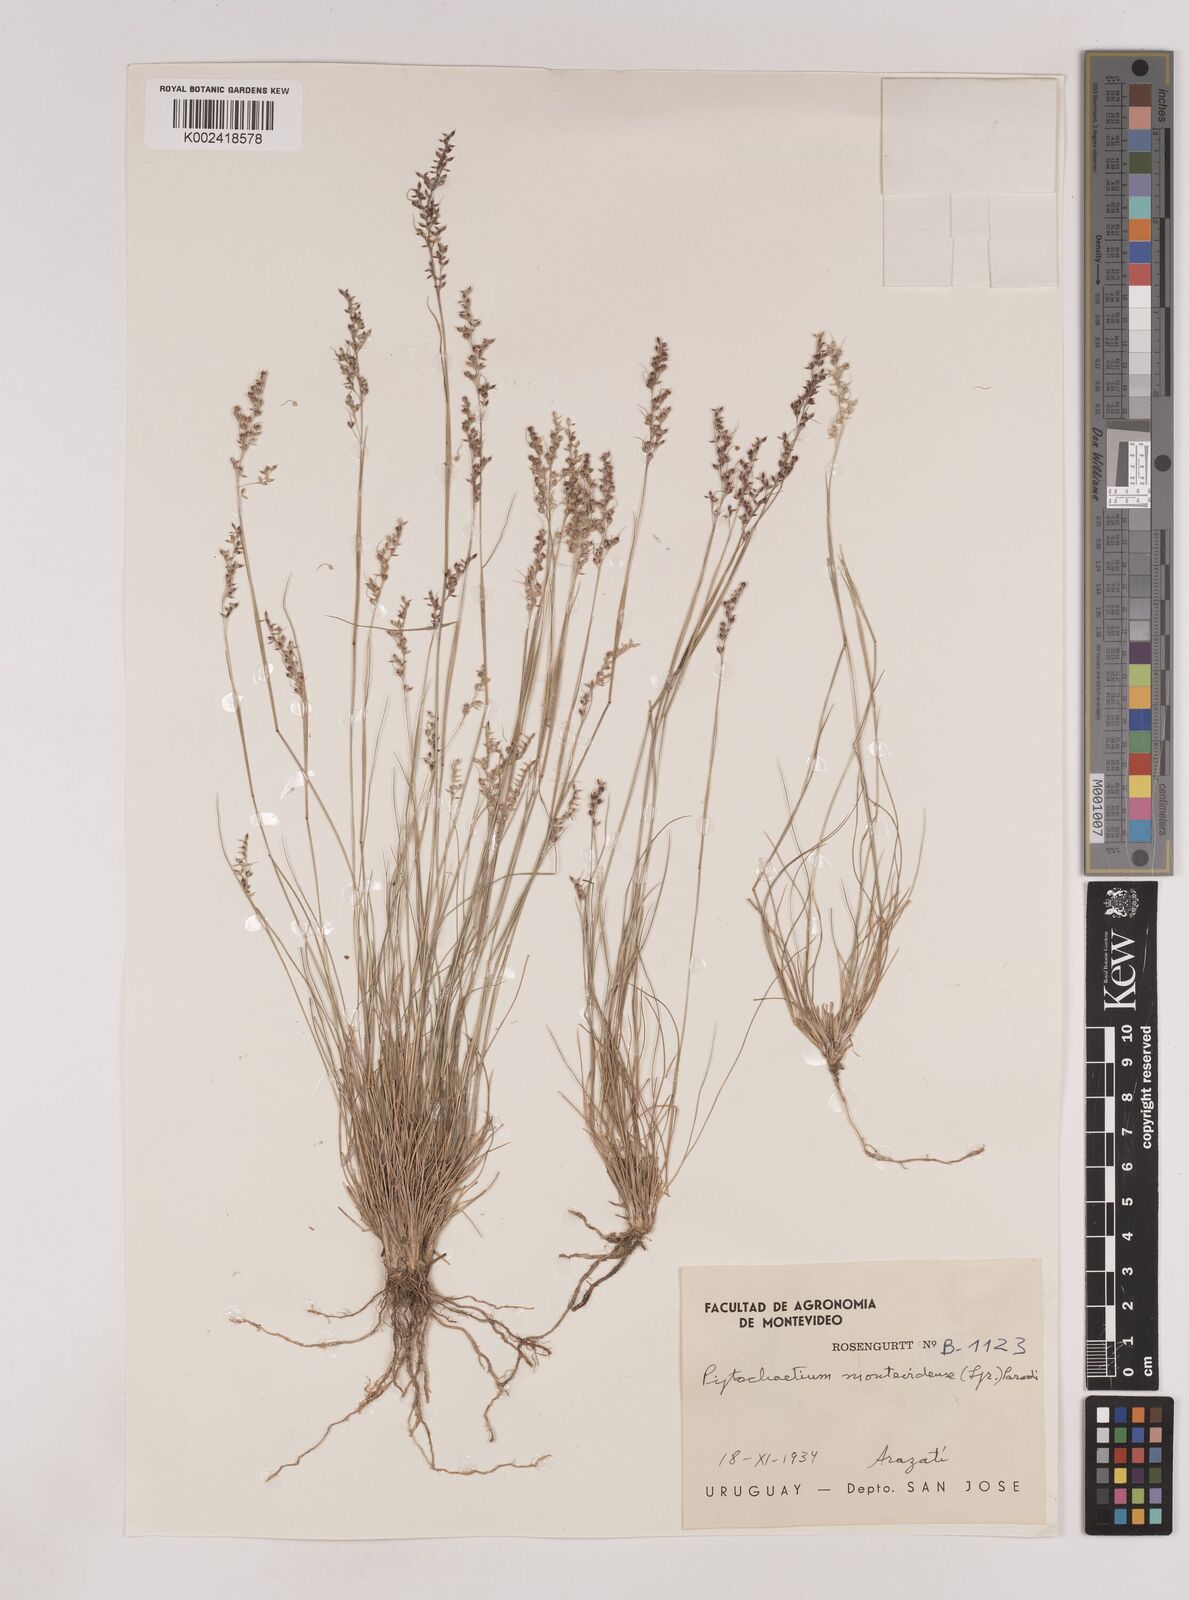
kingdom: Plantae
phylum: Tracheophyta
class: Liliopsida
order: Poales
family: Poaceae
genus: Piptochaetium
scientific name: Piptochaetium montevidense
